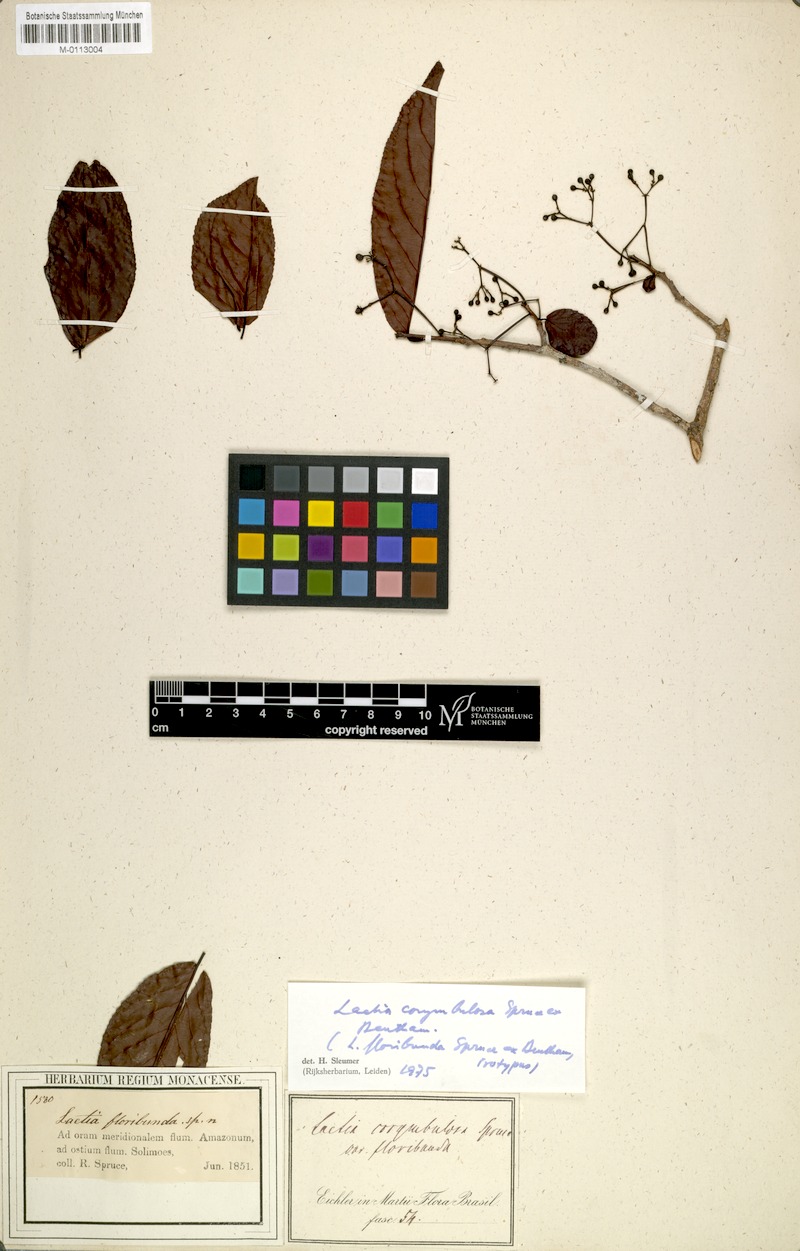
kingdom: Plantae
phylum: Tracheophyta
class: Magnoliopsida
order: Malpighiales
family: Salicaceae
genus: Casearia
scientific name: Casearia corymbulosa
